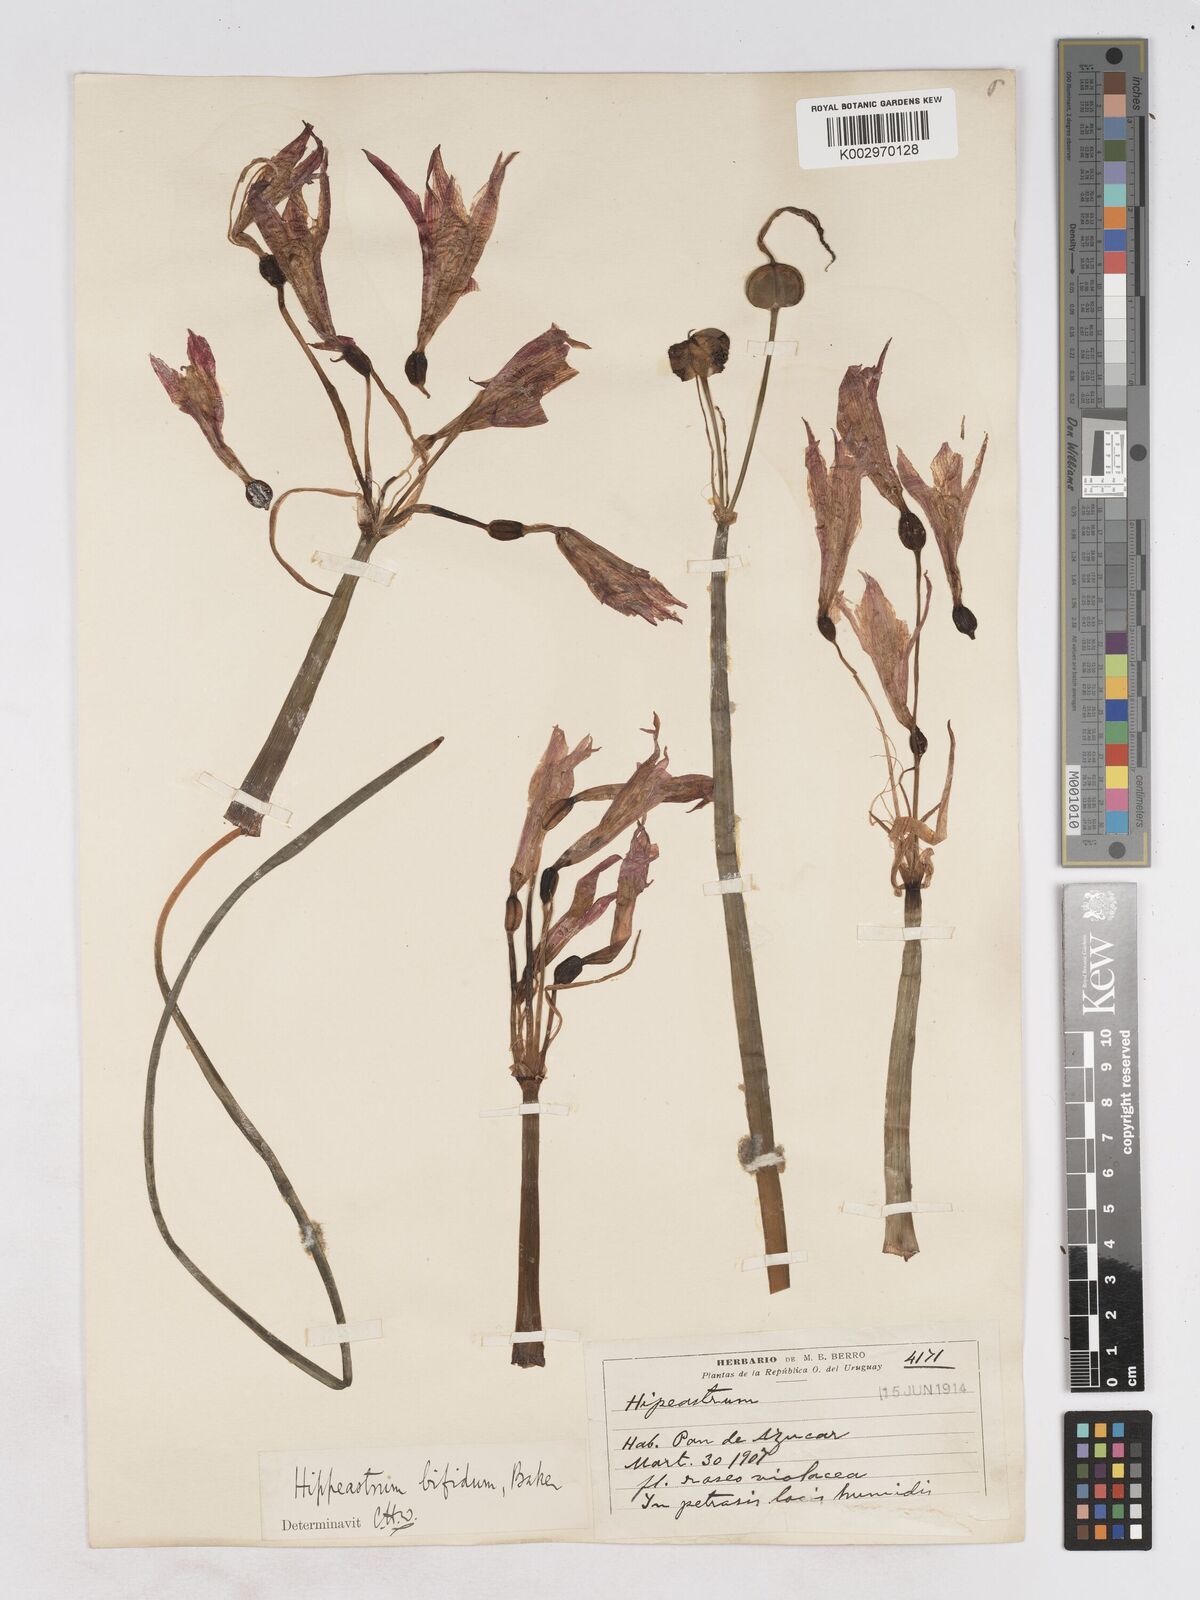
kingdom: Plantae
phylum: Tracheophyta
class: Liliopsida
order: Asparagales
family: Amaryllidaceae
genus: Zephyranthes
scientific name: Zephyranthes bifida
